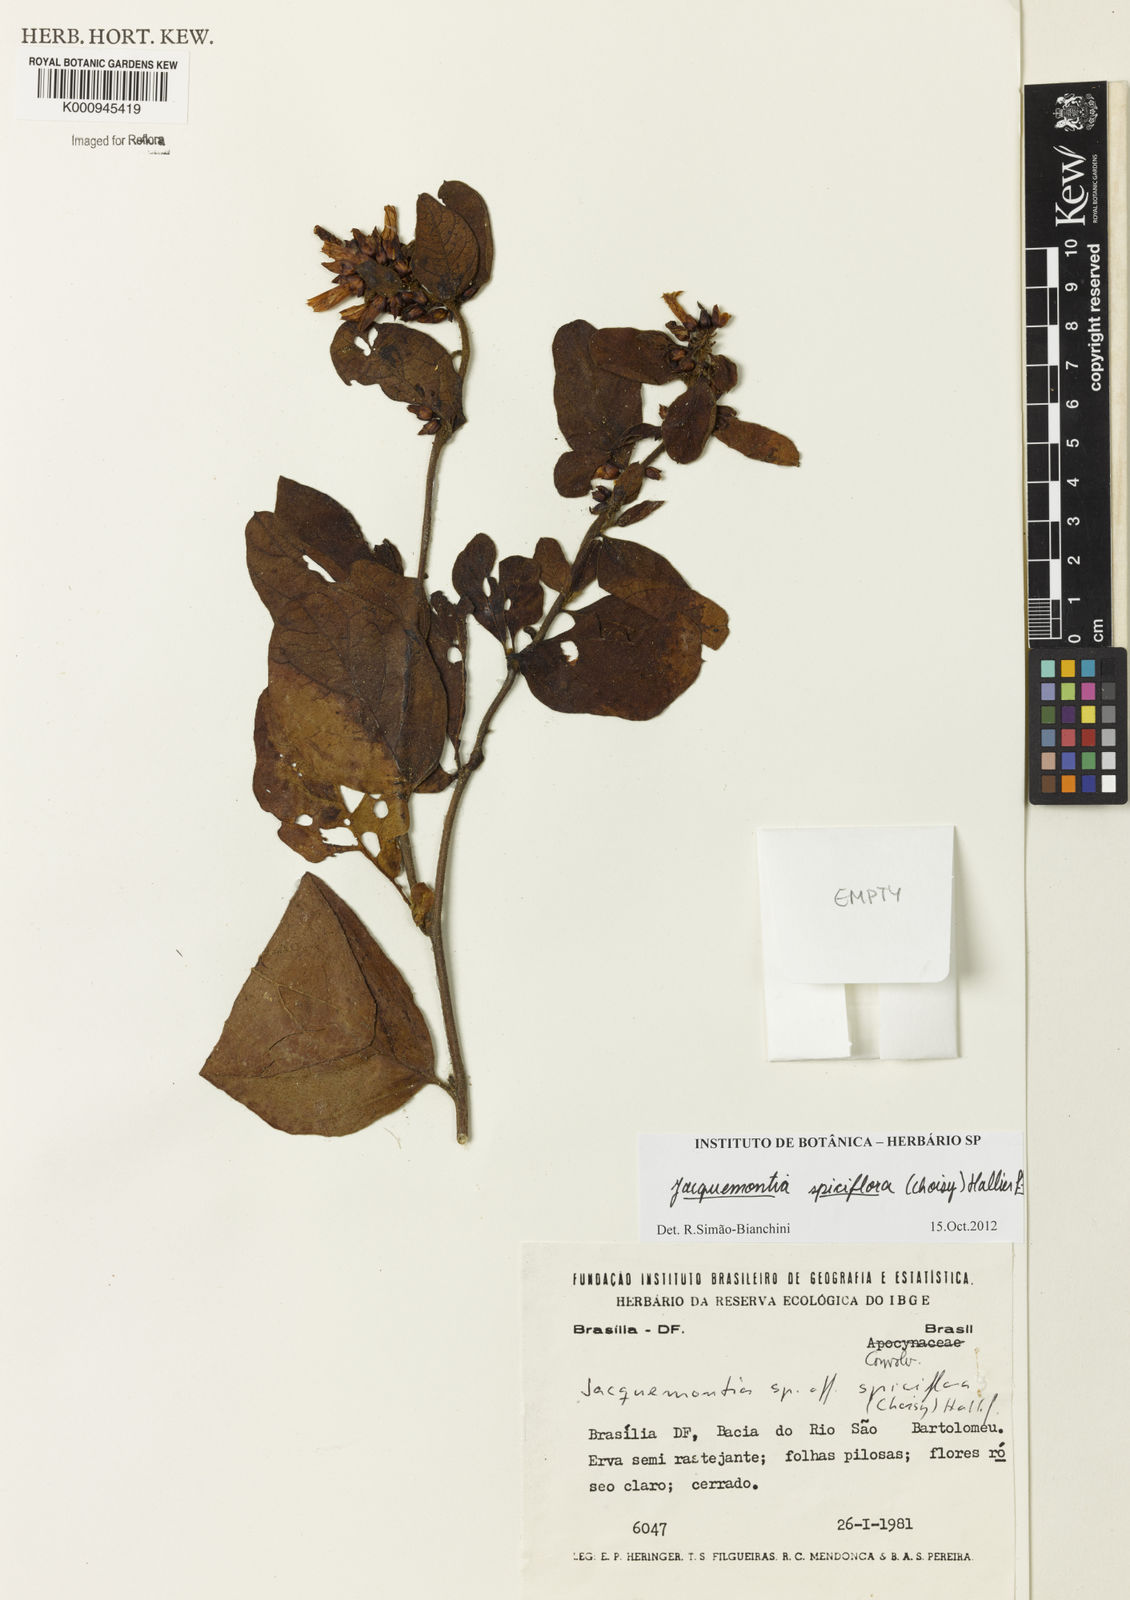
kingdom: Plantae
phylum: Tracheophyta
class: Magnoliopsida
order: Solanales
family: Convolvulaceae
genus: Jacquemontia
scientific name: Jacquemontia spiciflora
